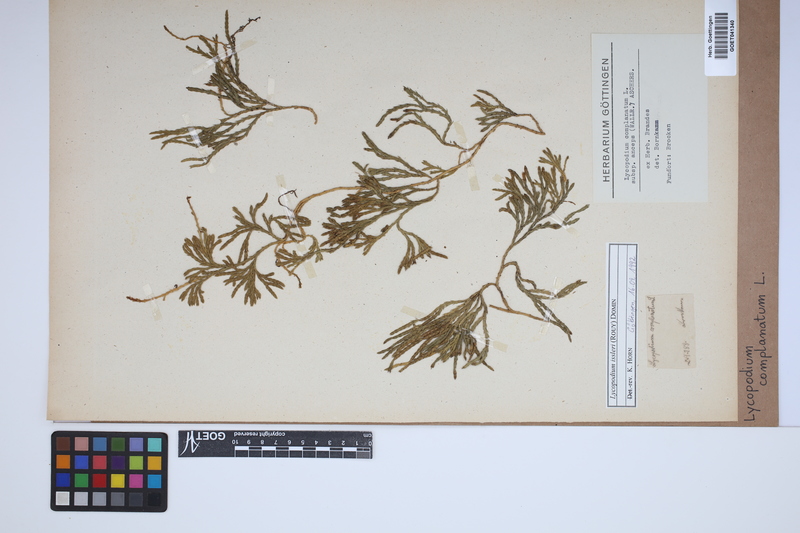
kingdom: Plantae
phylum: Tracheophyta
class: Lycopodiopsida
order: Lycopodiales
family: Lycopodiaceae
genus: Diphasiastrum
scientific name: Diphasiastrum issleri
